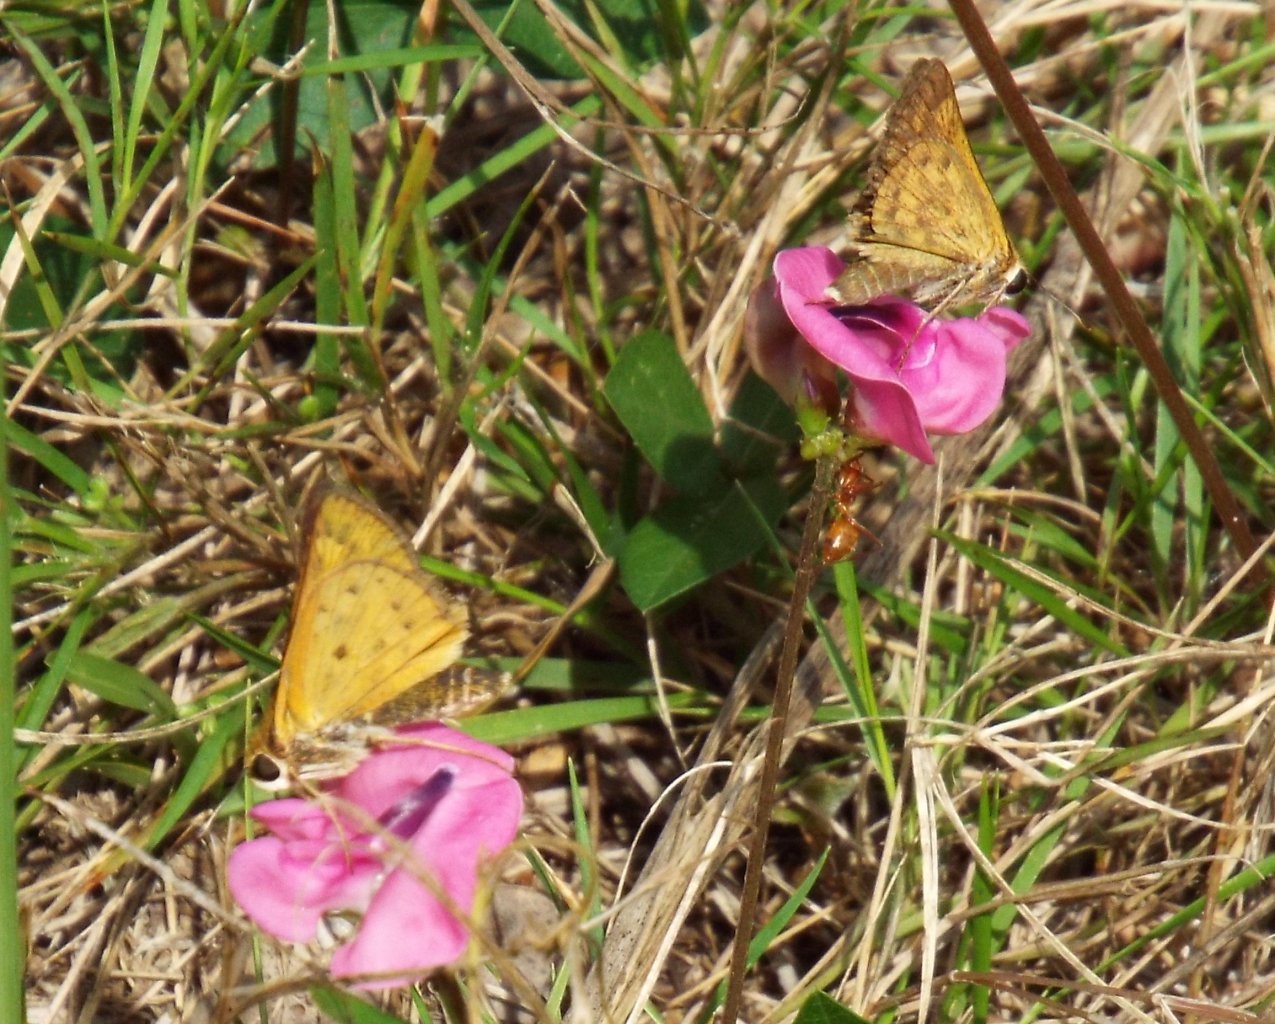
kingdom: Animalia
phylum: Arthropoda
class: Insecta
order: Lepidoptera
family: Hesperiidae
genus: Hylephila
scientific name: Hylephila phyleus
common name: Fiery Skipper
